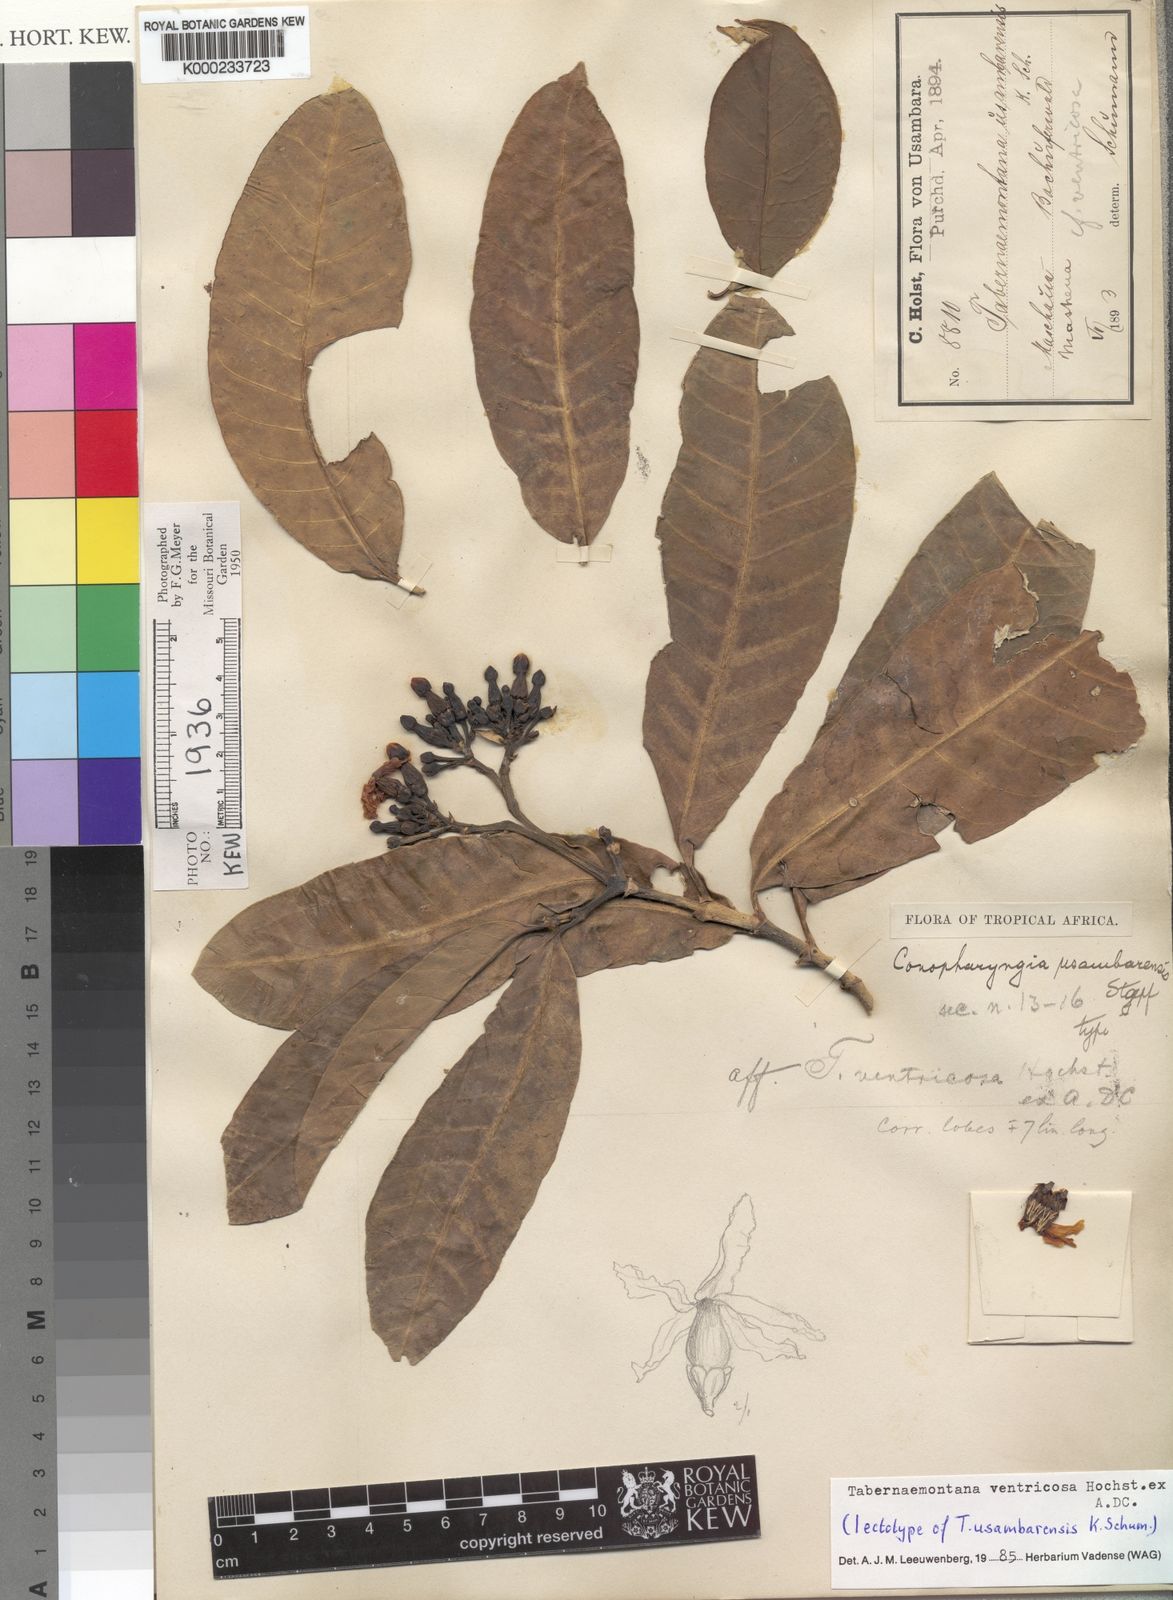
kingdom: Plantae
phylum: Tracheophyta
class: Magnoliopsida
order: Gentianales
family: Apocynaceae
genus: Tabernaemontana
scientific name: Tabernaemontana ventricosa
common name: Forest toad-tree
